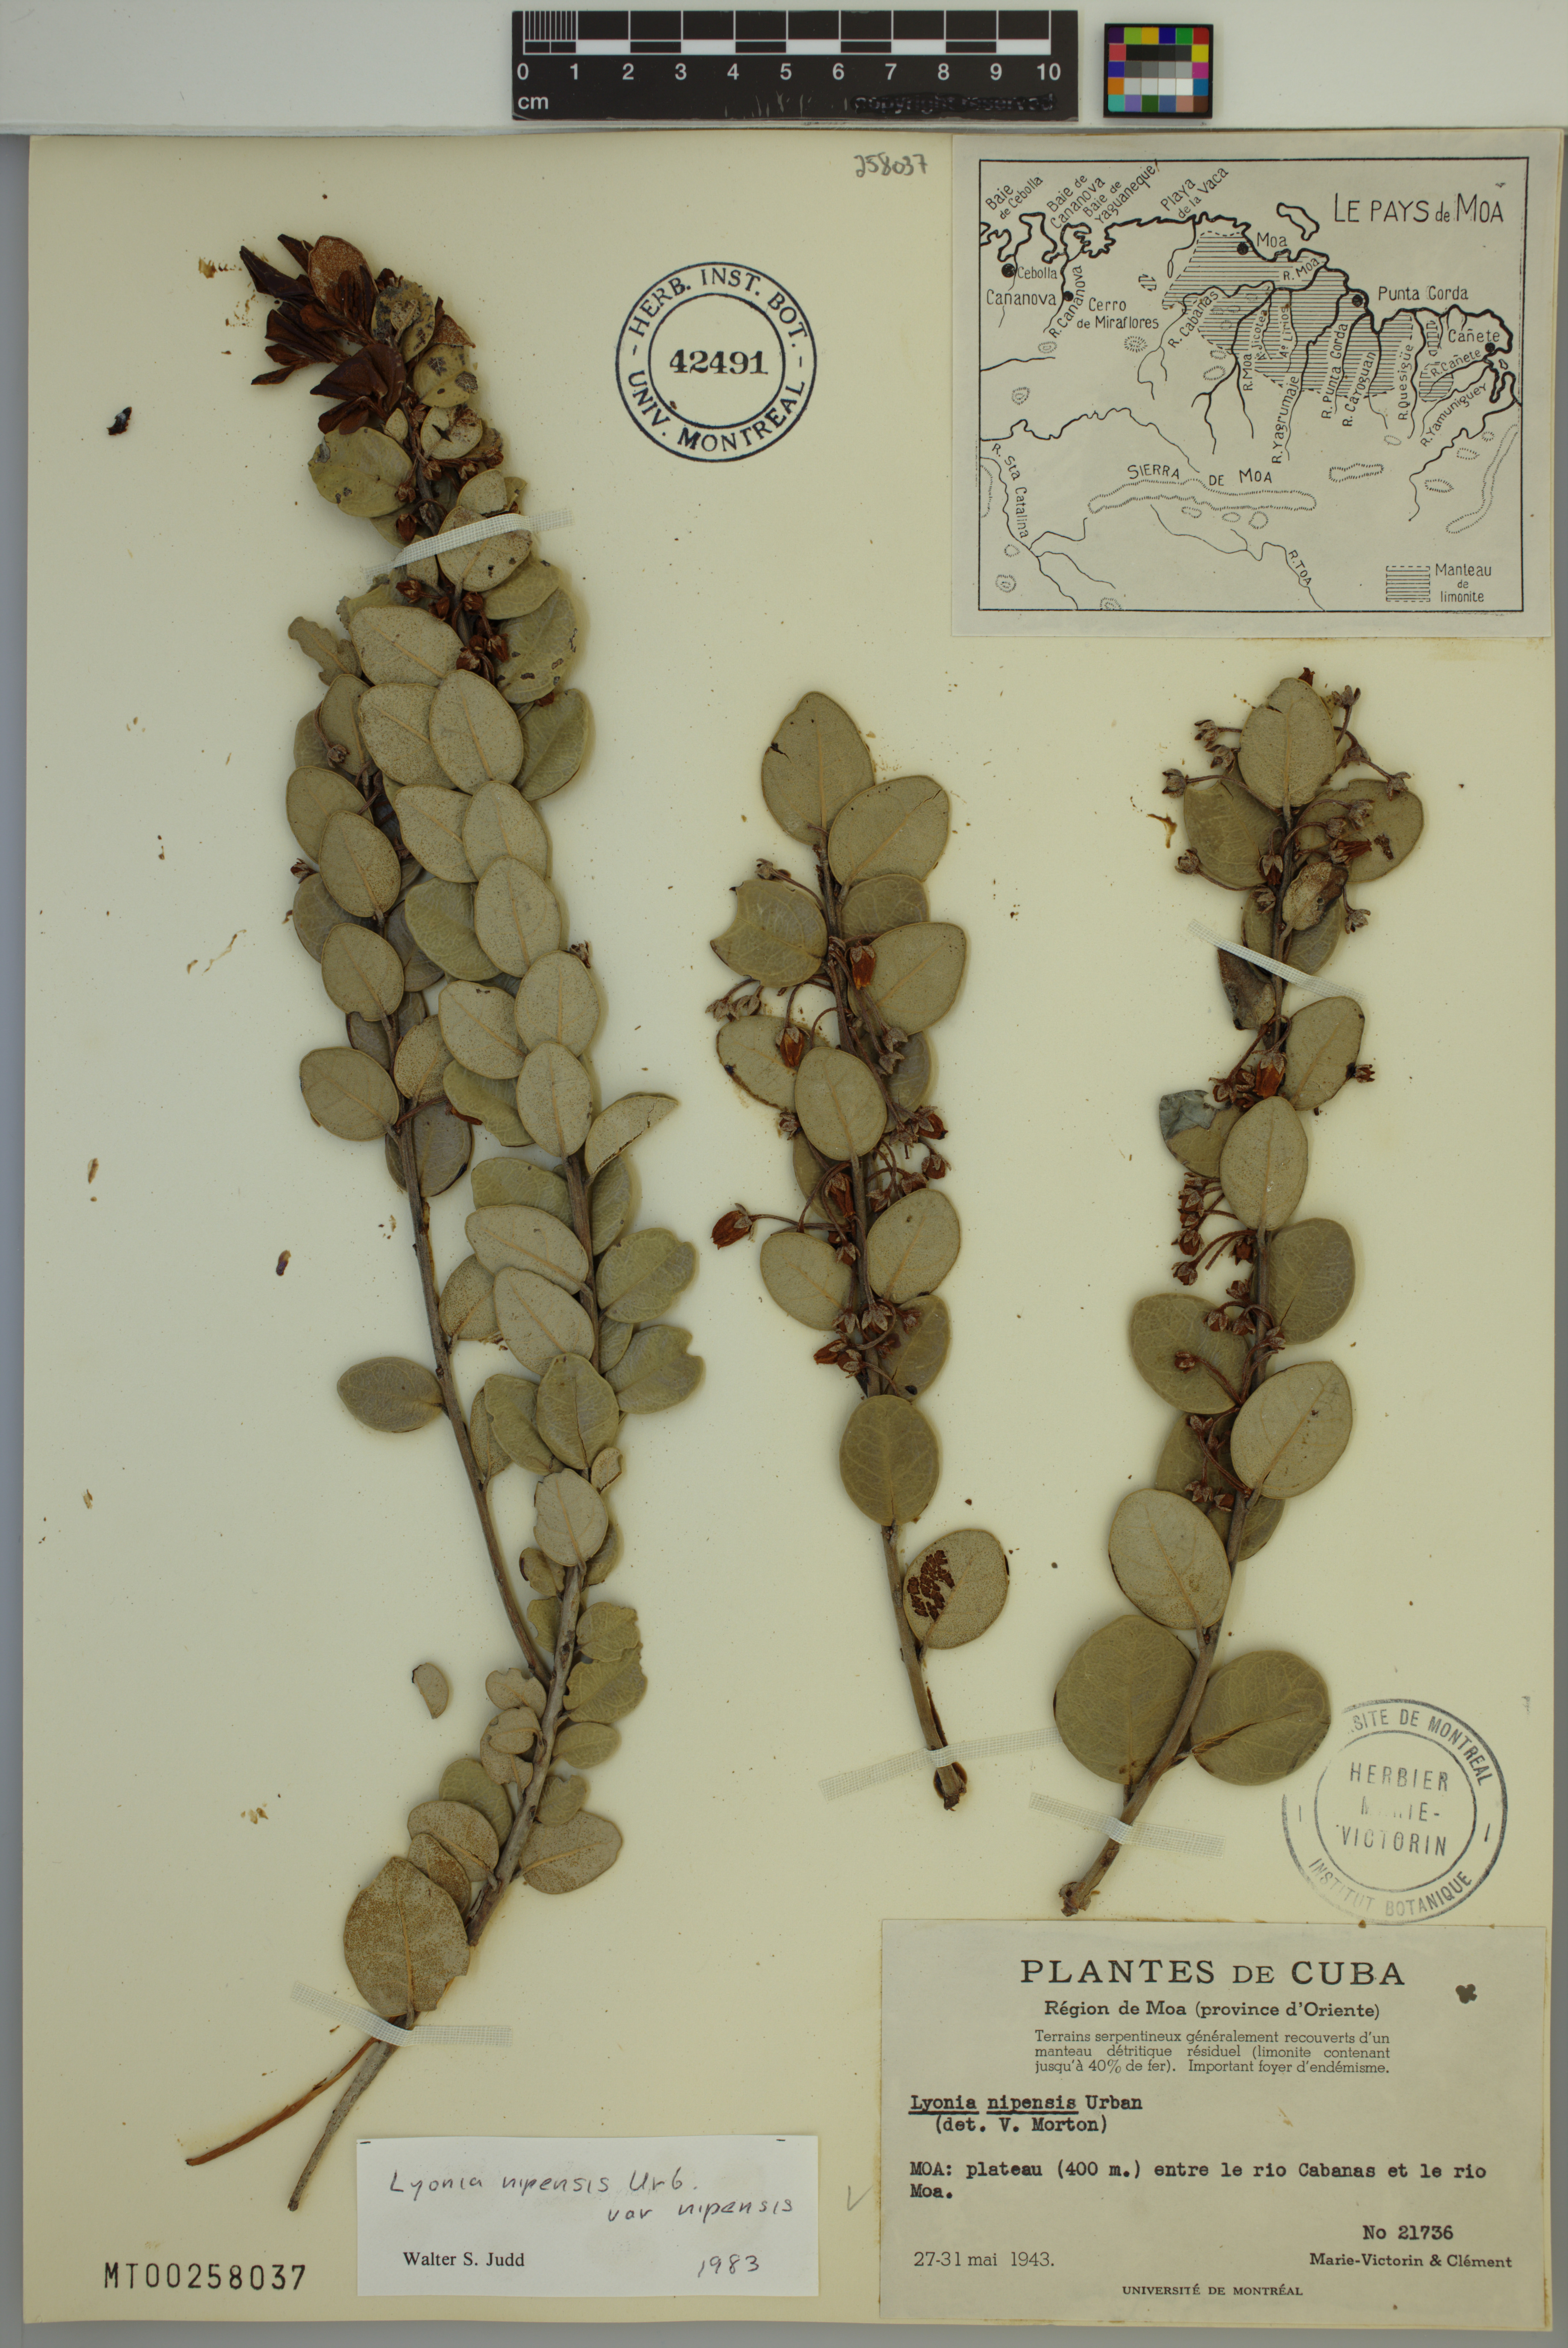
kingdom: Plantae
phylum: Tracheophyta
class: Magnoliopsida
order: Ericales
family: Ericaceae
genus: Lyonia
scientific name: Lyonia nipensis
